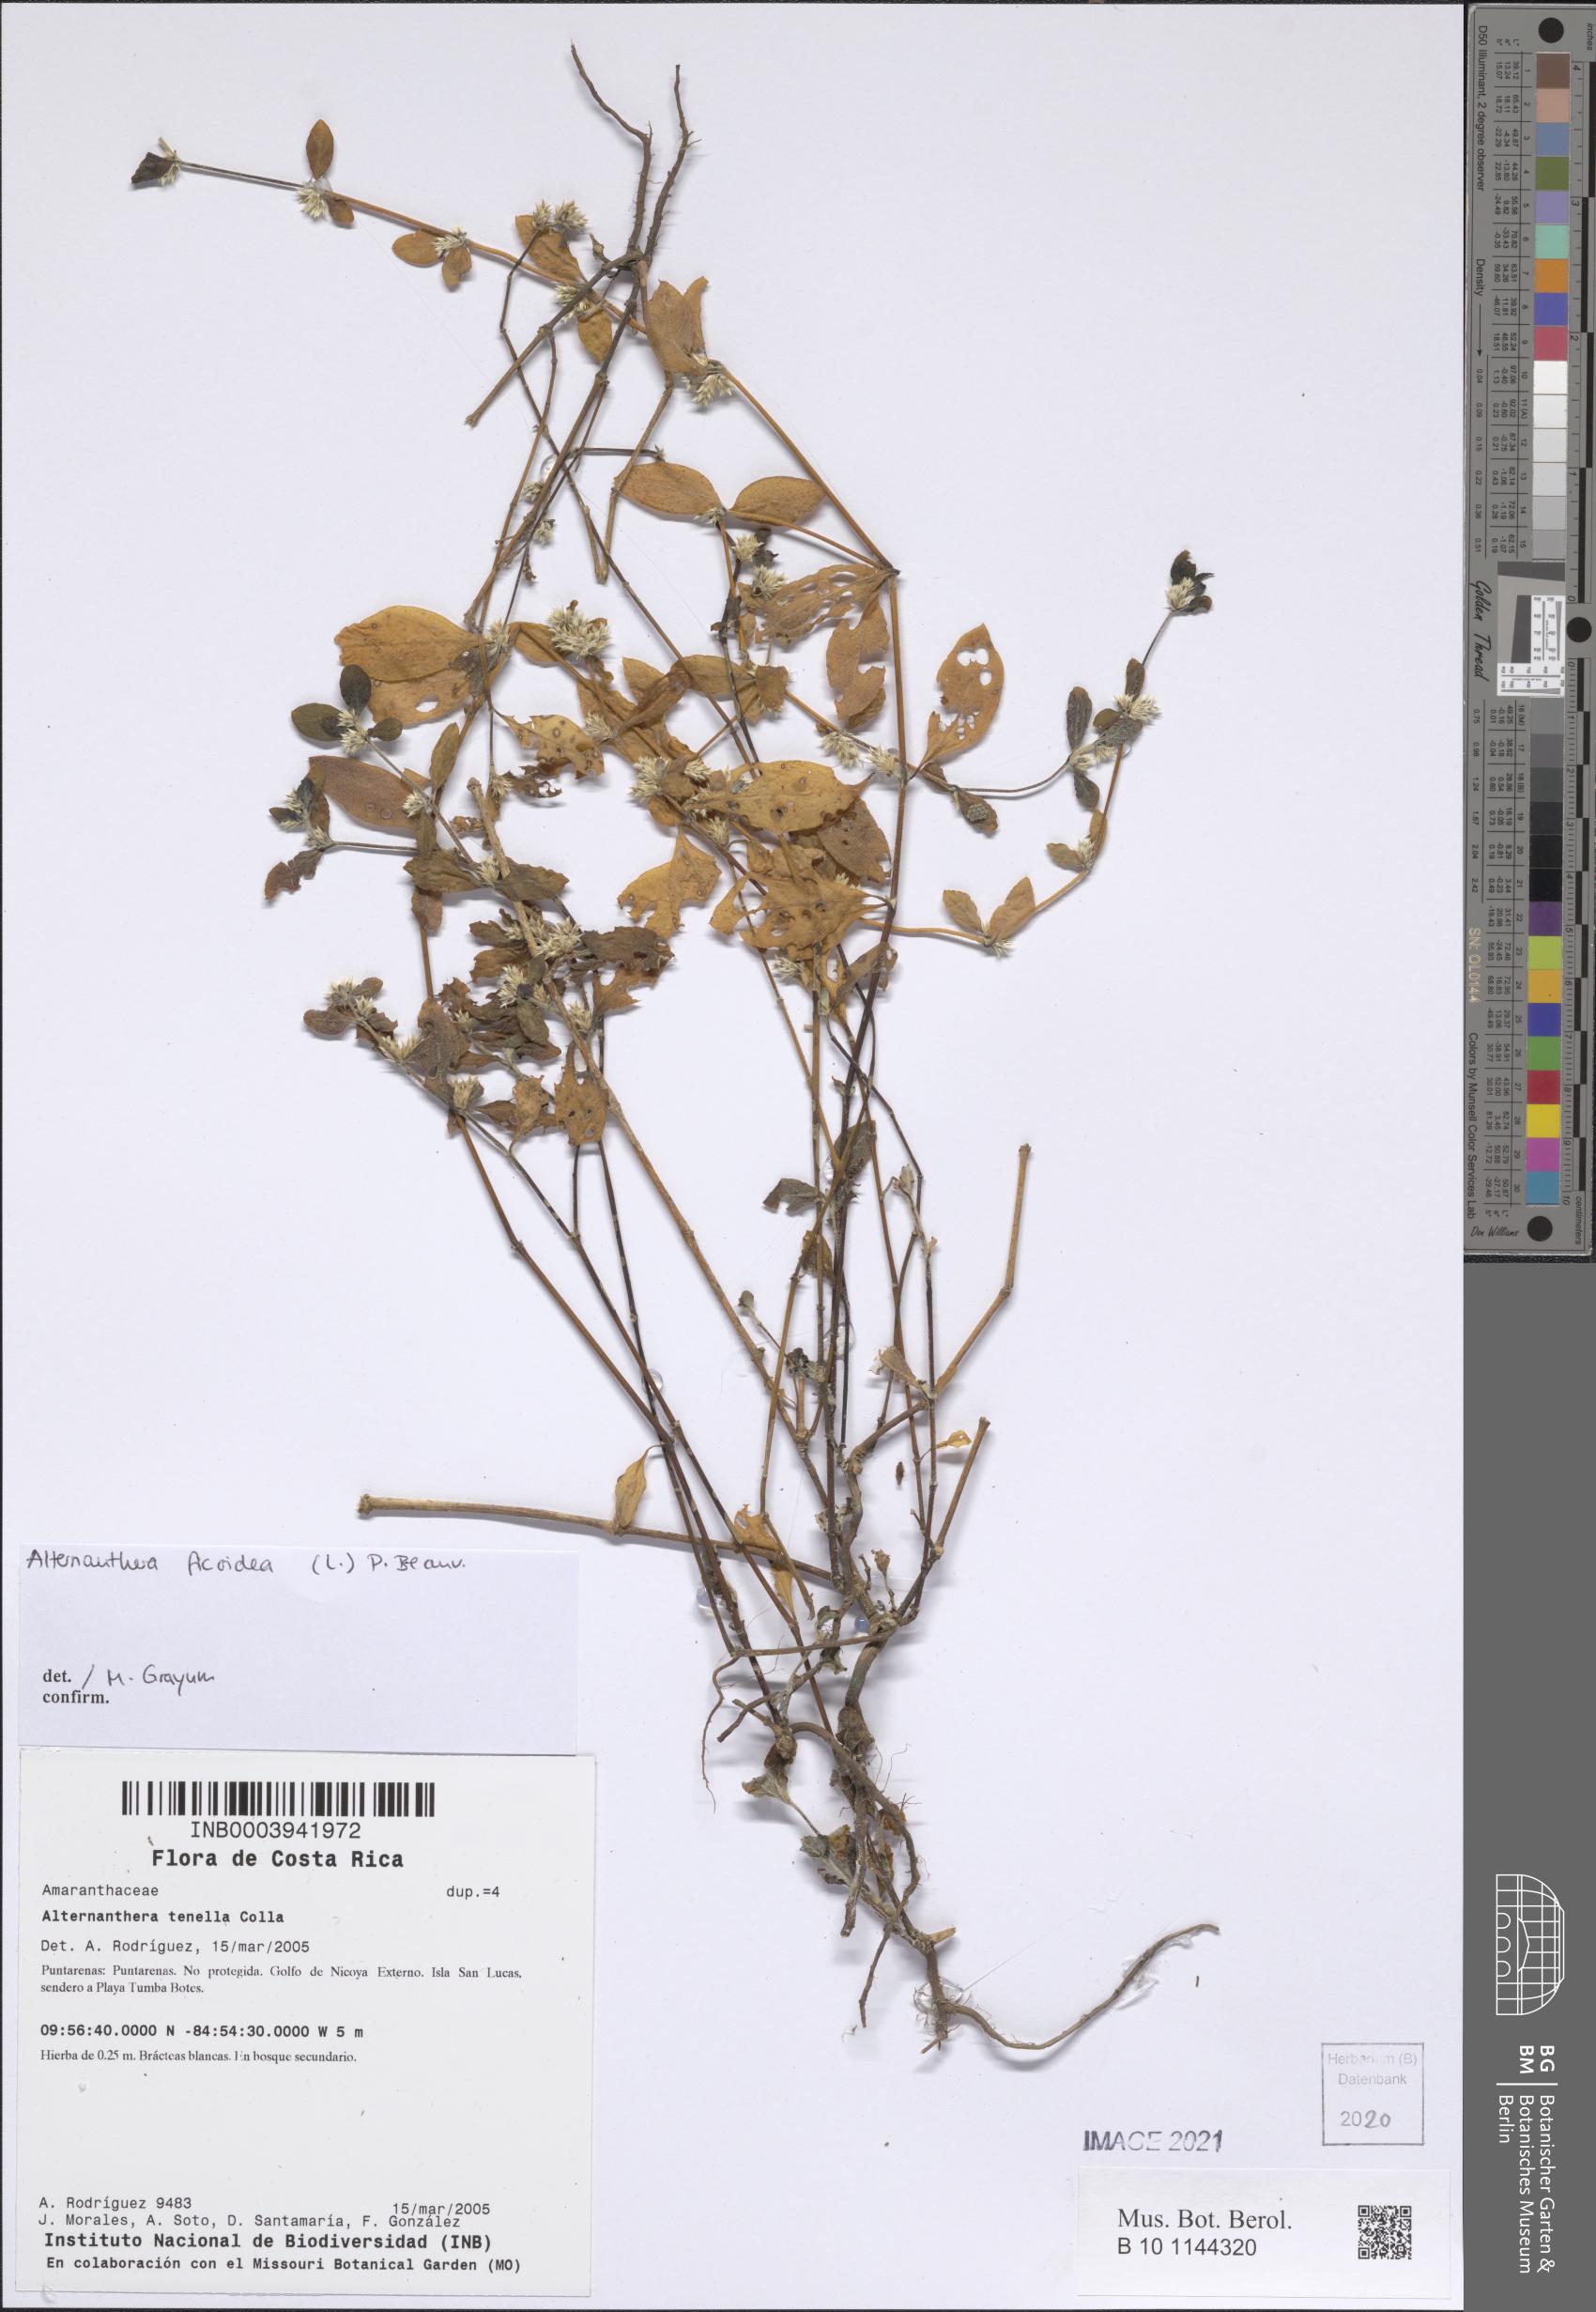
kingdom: Plantae
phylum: Tracheophyta
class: Magnoliopsida
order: Caryophyllales
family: Amaranthaceae
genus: Alternanthera
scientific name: Alternanthera ficoidea
